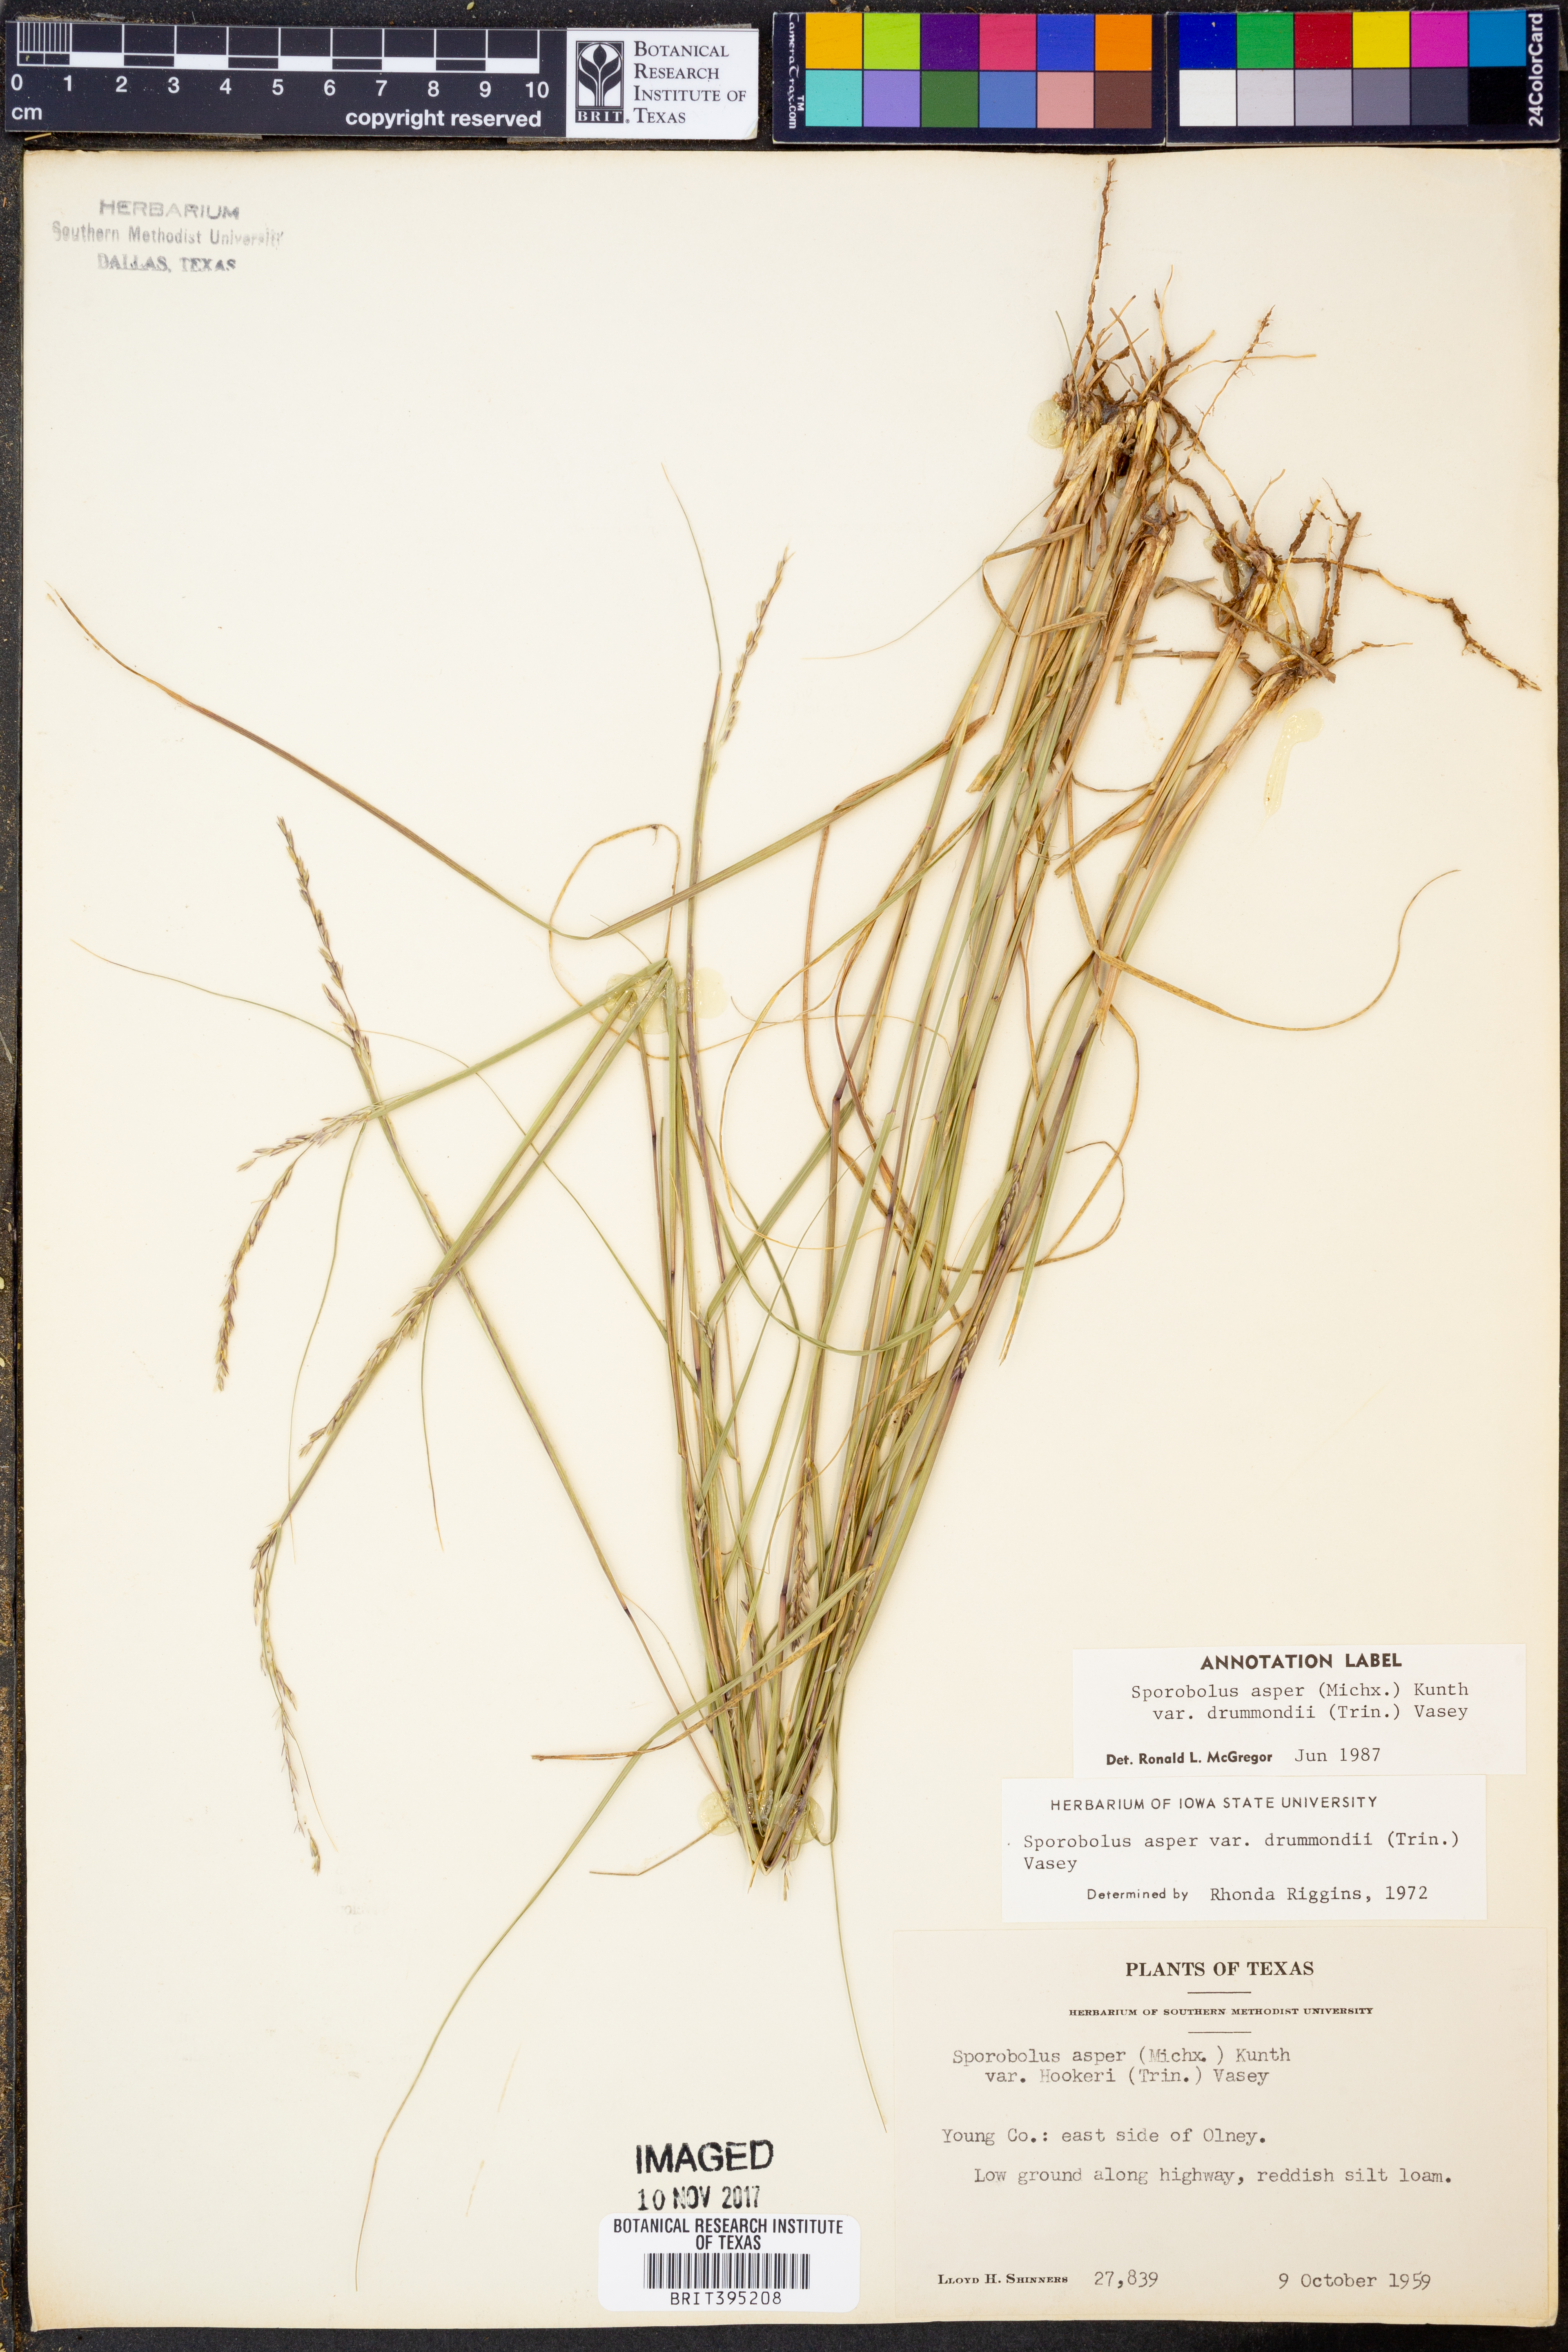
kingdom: Plantae
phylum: Tracheophyta
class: Liliopsida
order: Poales
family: Poaceae
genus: Sporobolus
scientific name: Sporobolus compositus
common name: Rough dropseed
